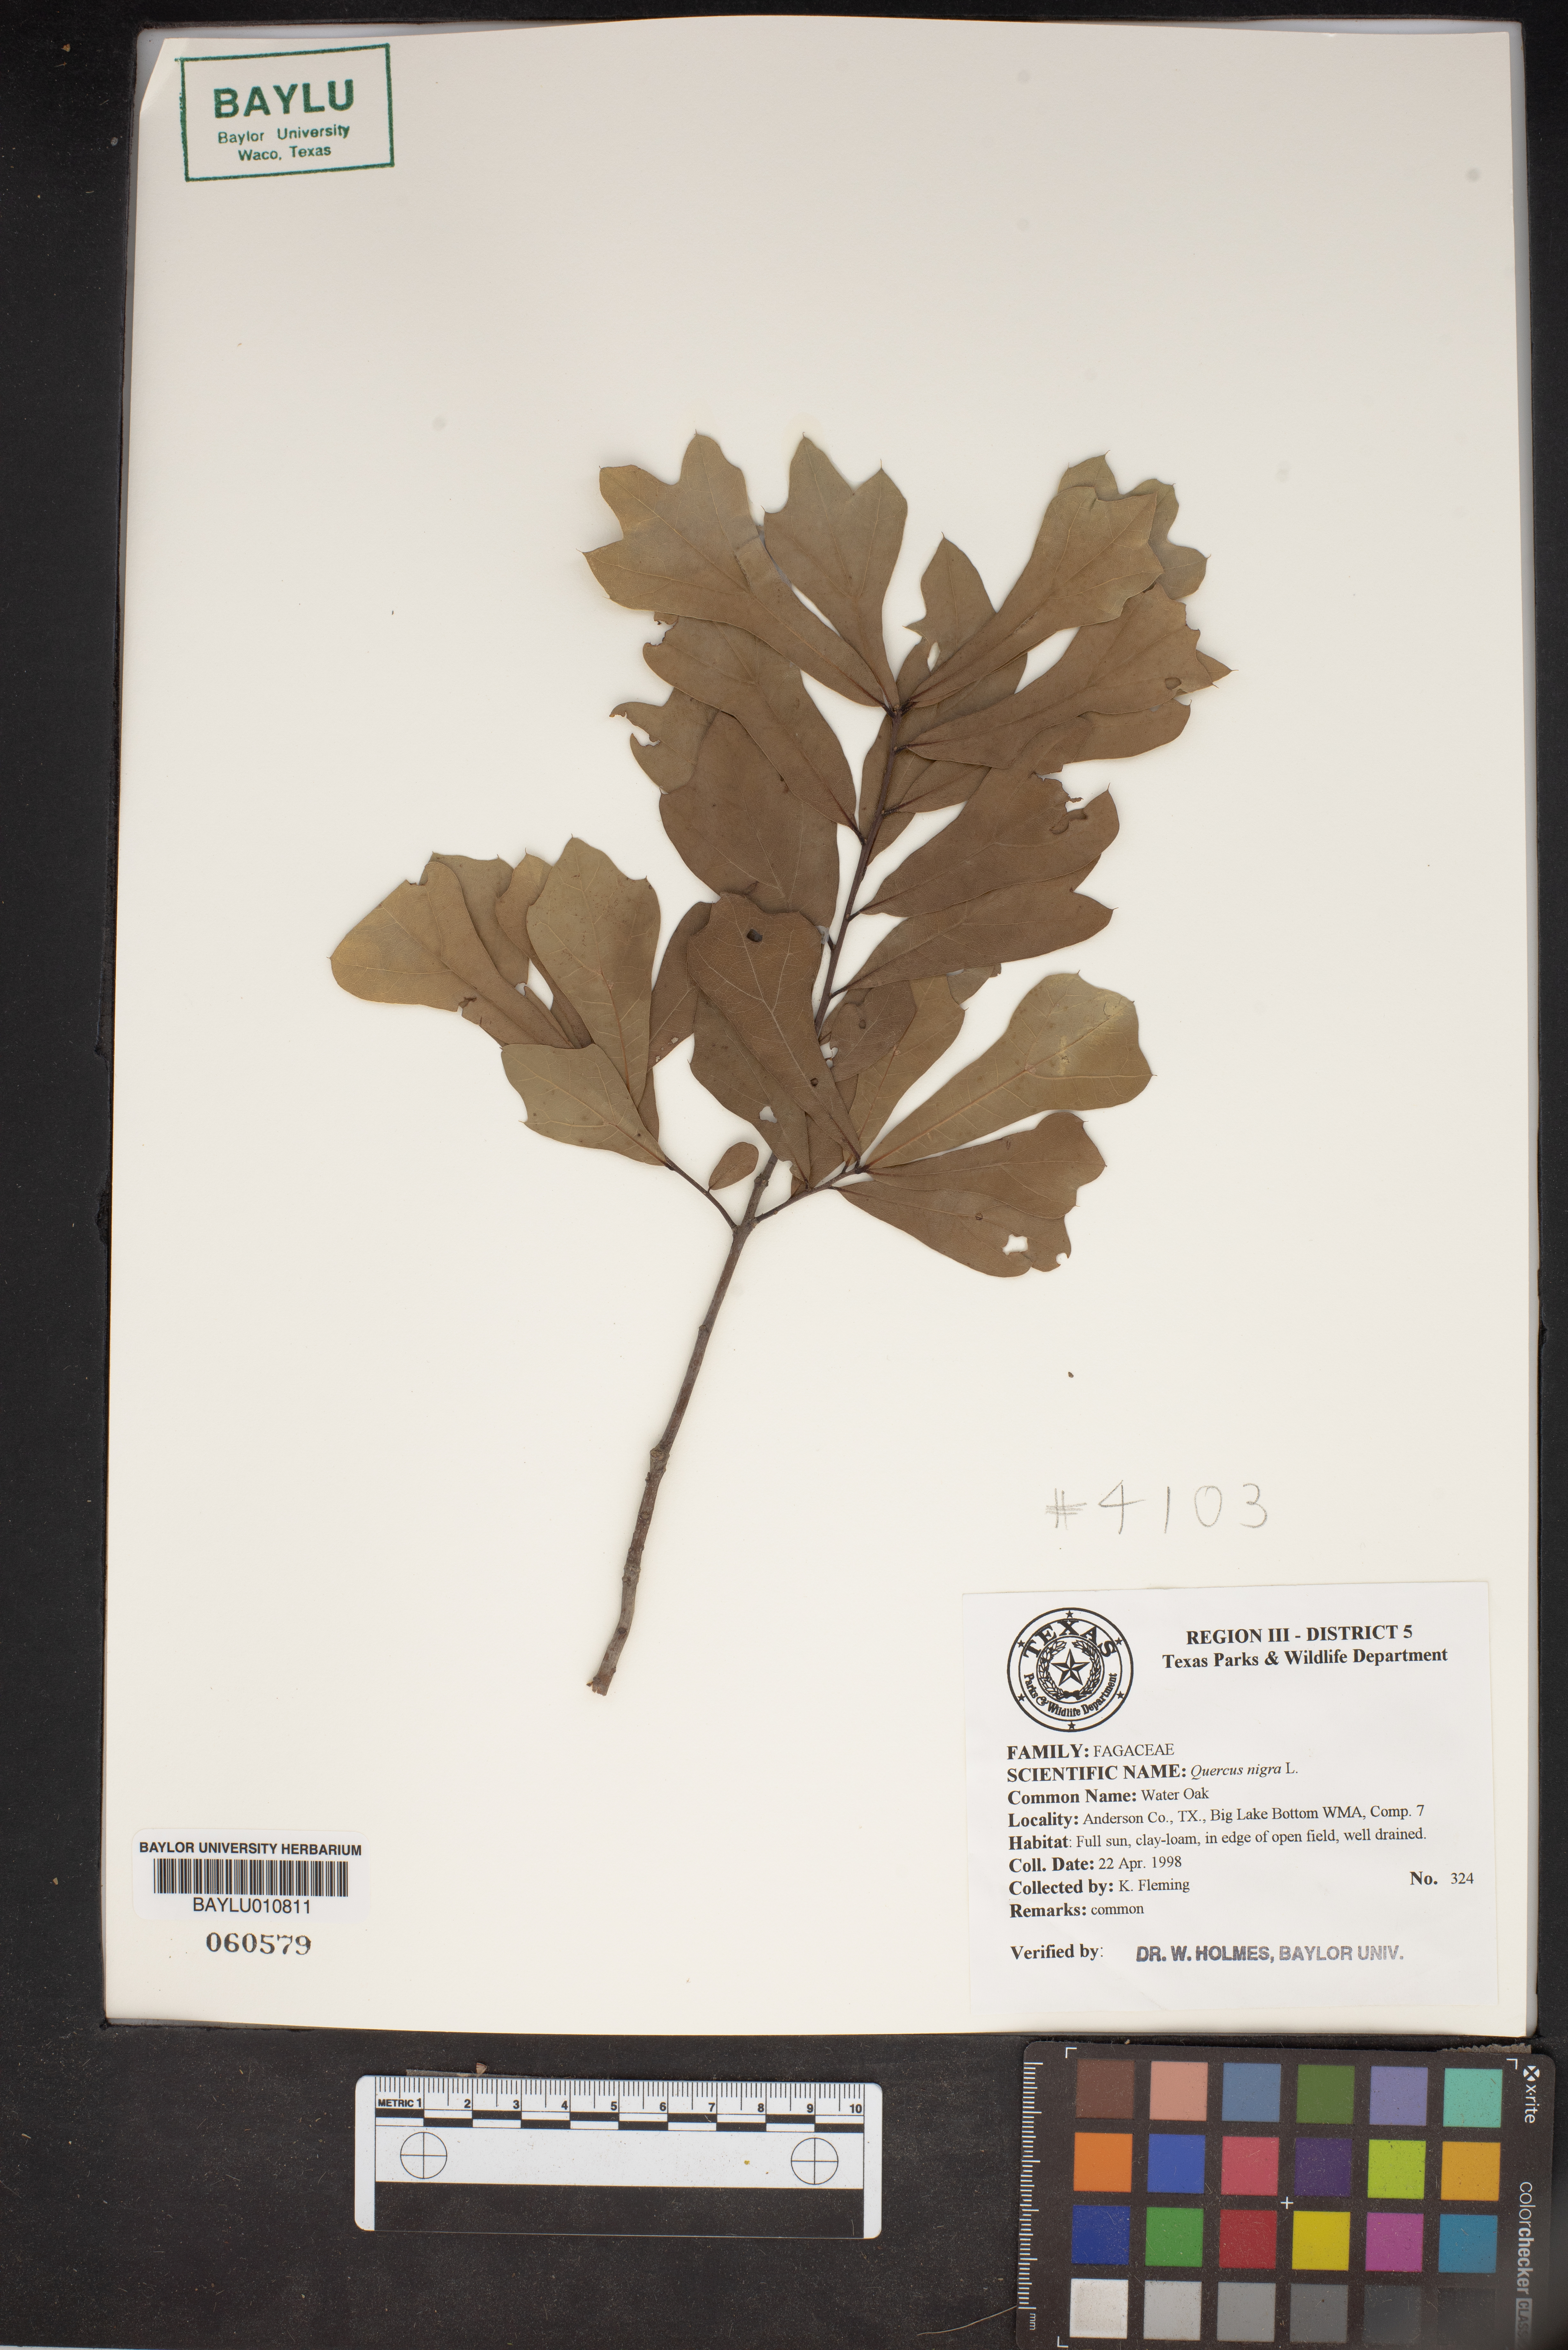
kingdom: Plantae
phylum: Tracheophyta
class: Magnoliopsida
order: Fagales
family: Fagaceae
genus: Quercus
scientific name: Quercus nigra
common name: Water oak
